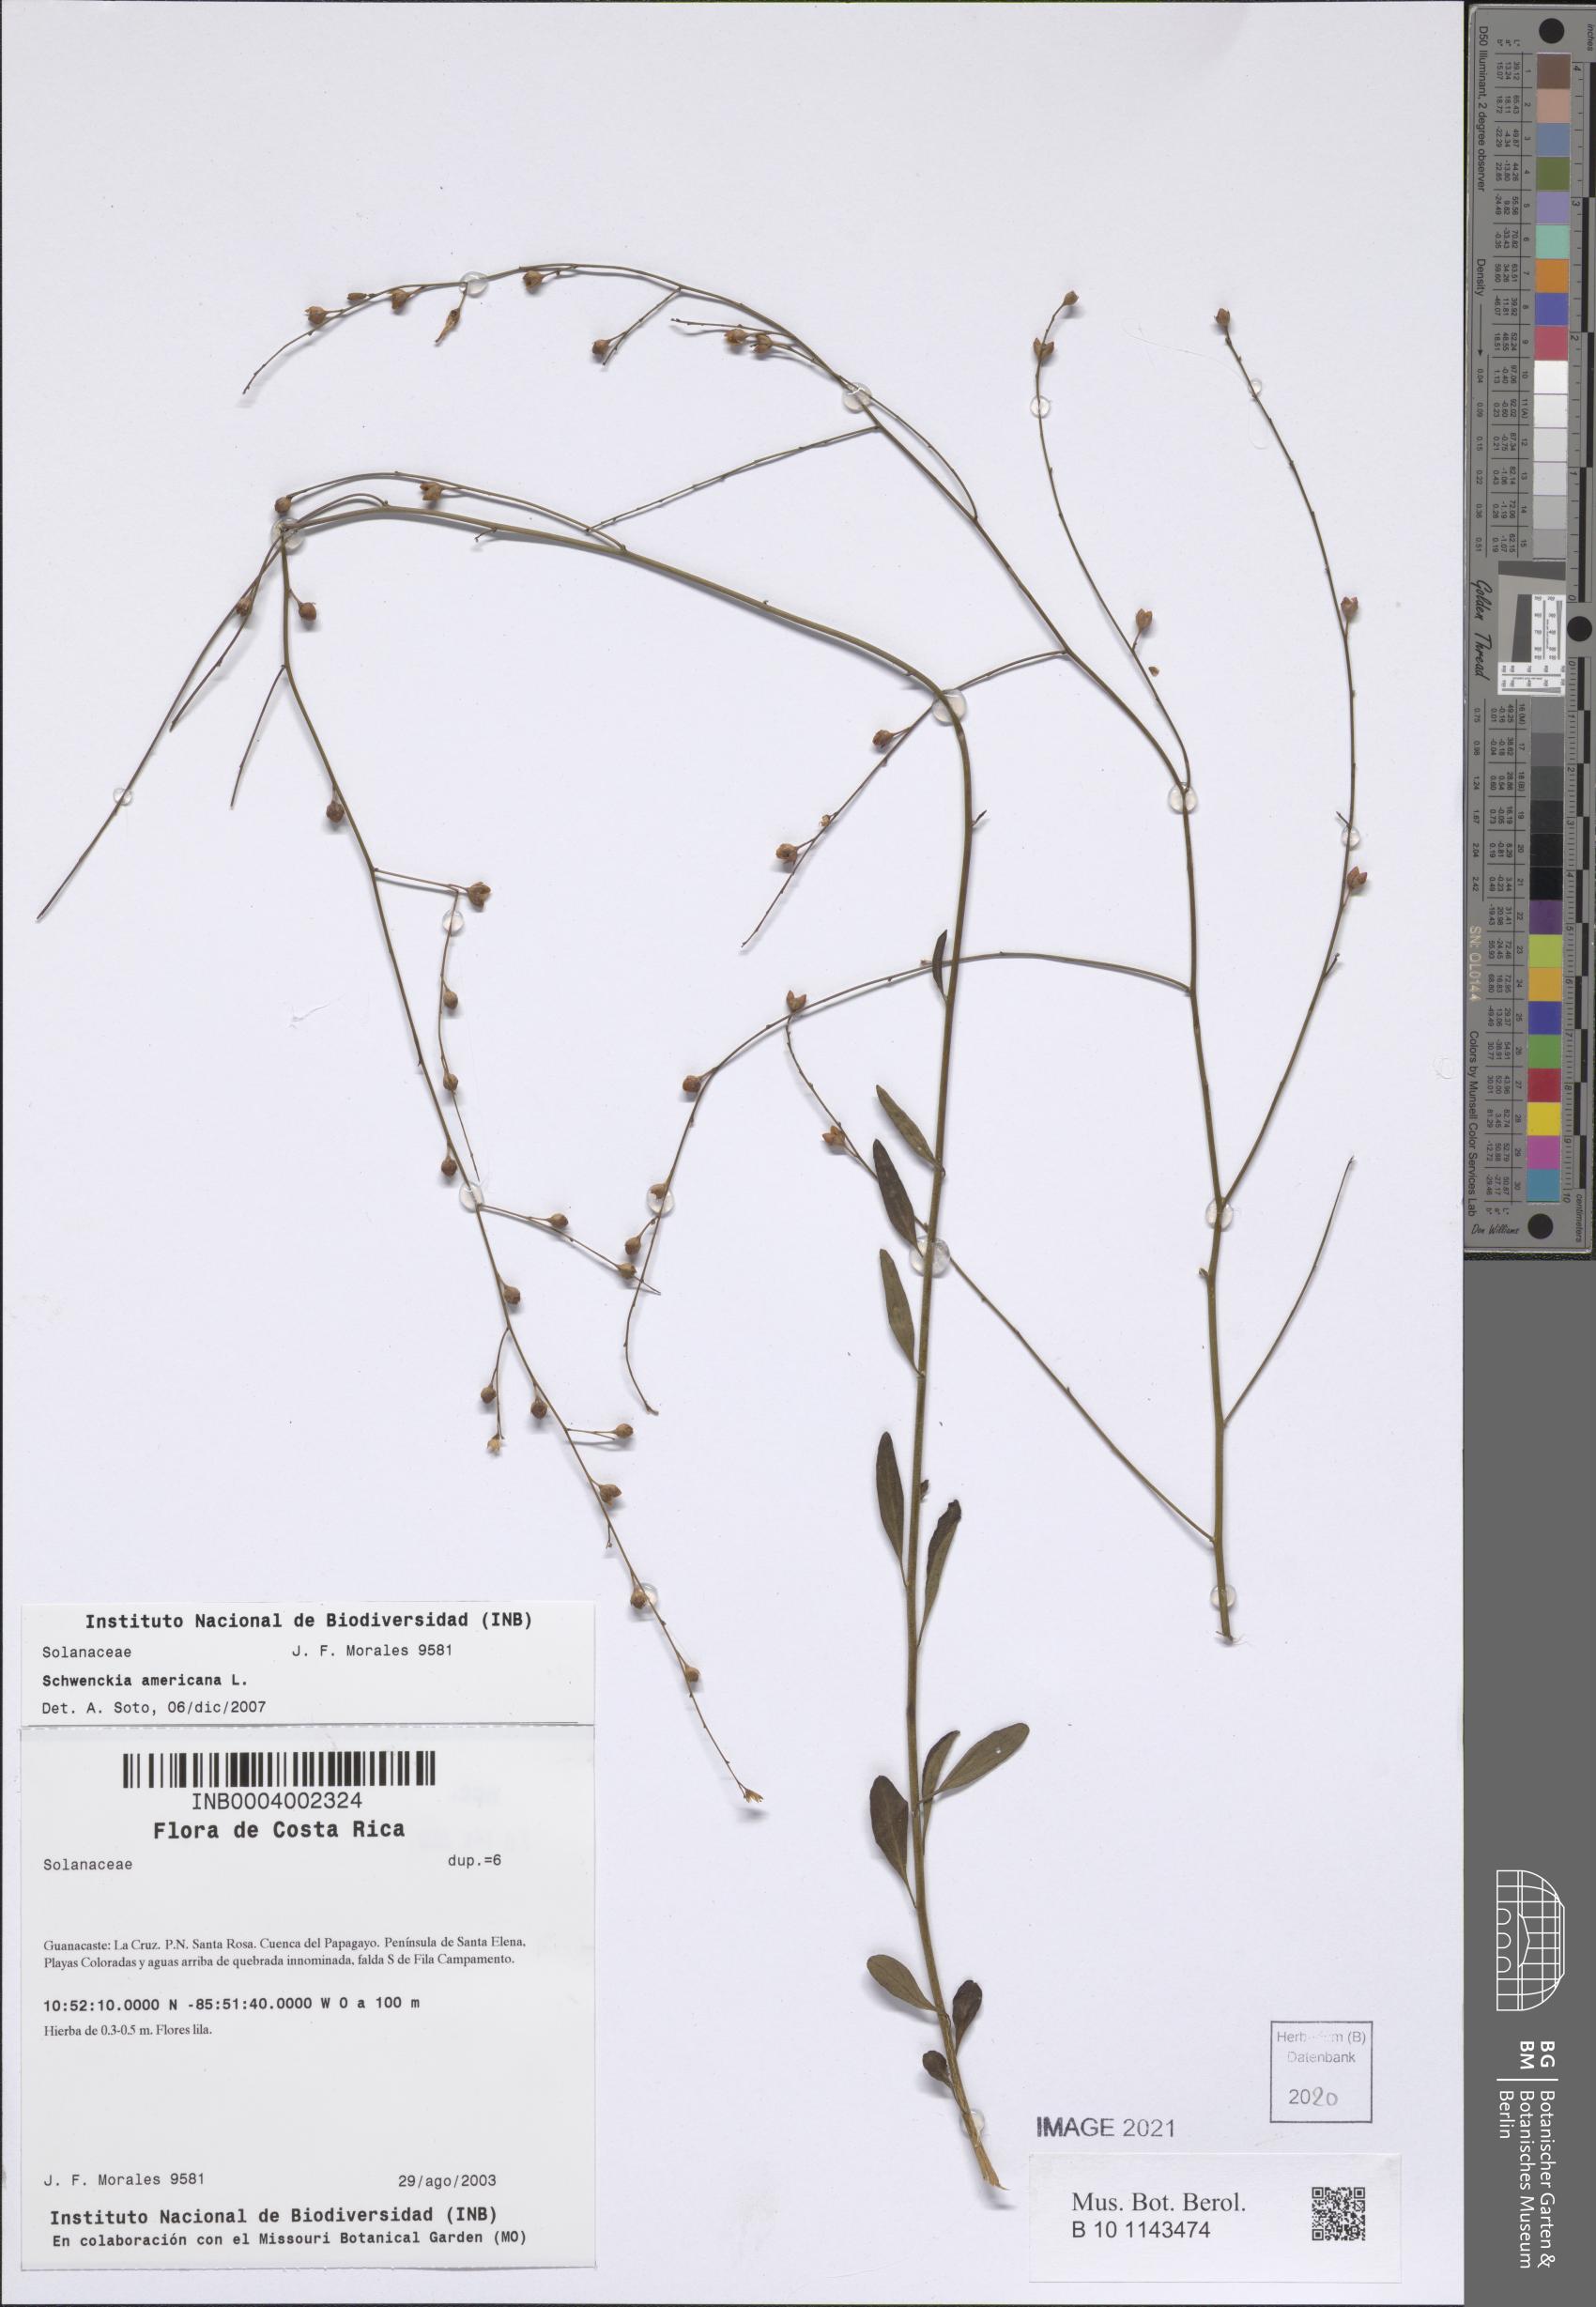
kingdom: Plantae
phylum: Tracheophyta
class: Magnoliopsida
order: Solanales
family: Solanaceae
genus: Schwenckia
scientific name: Schwenckia americana
